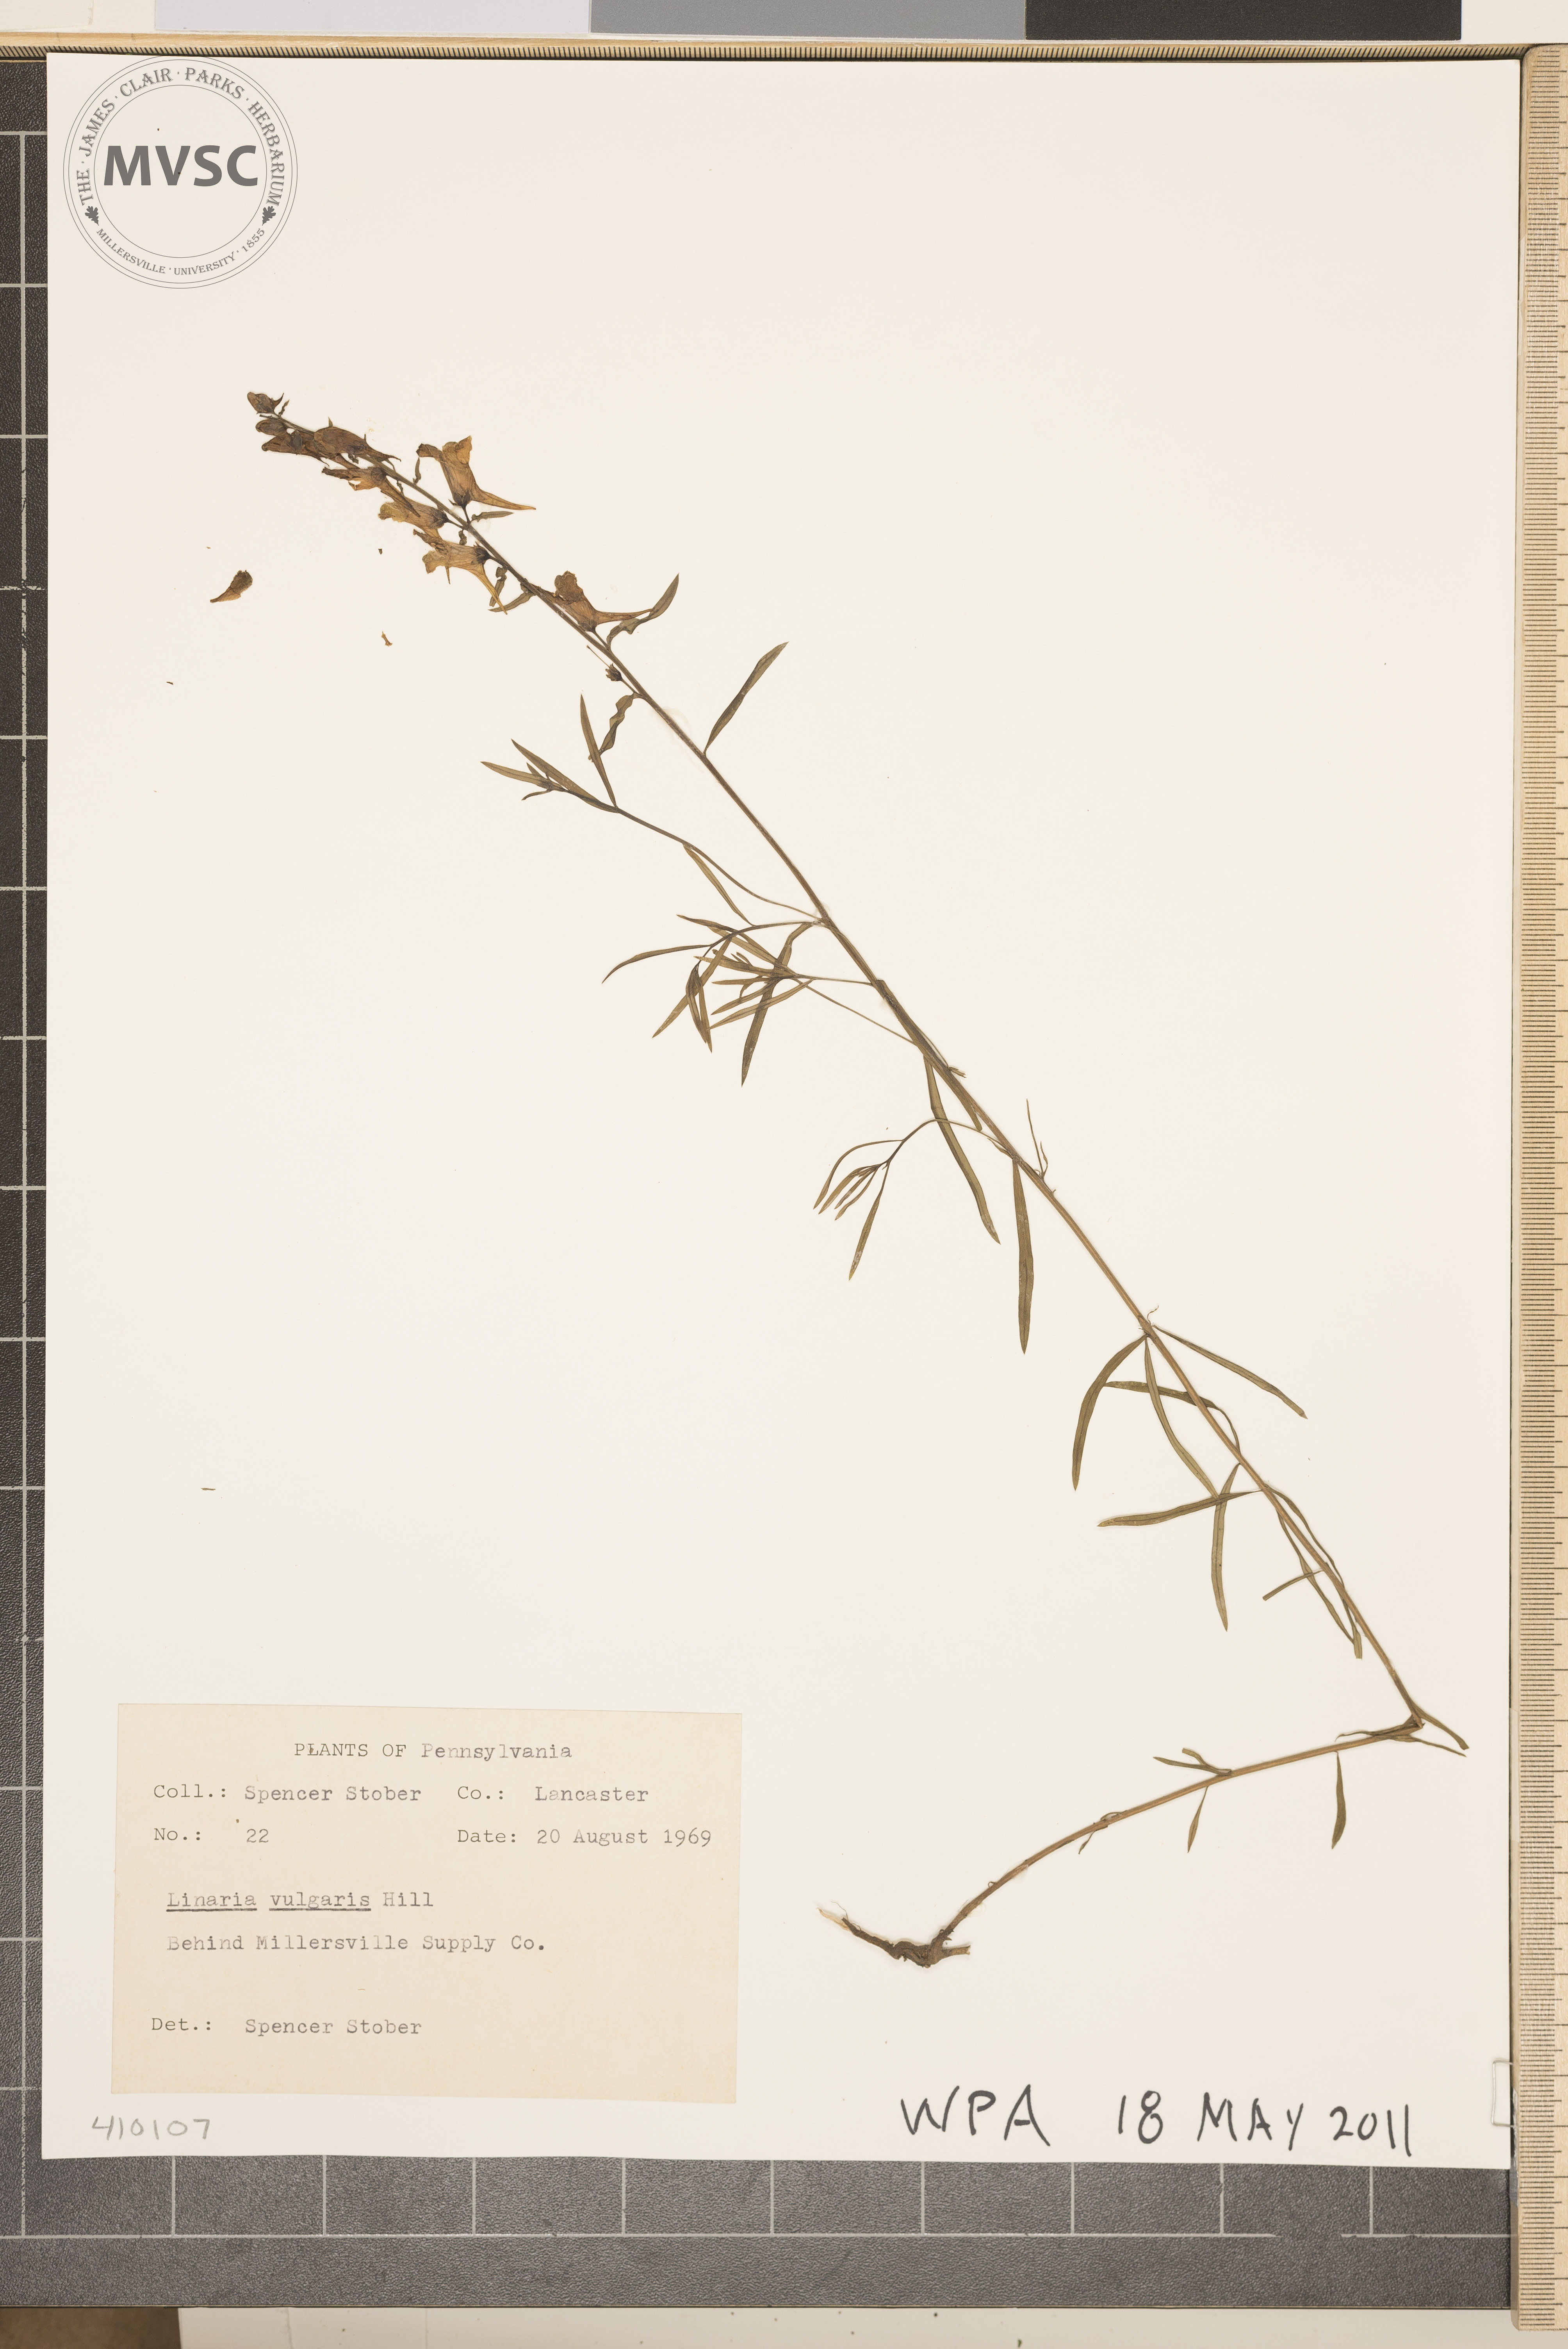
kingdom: Plantae
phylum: Tracheophyta
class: Magnoliopsida
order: Lamiales
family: Plantaginaceae
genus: Linaria
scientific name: Linaria vulgaris
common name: Butter and eggs
